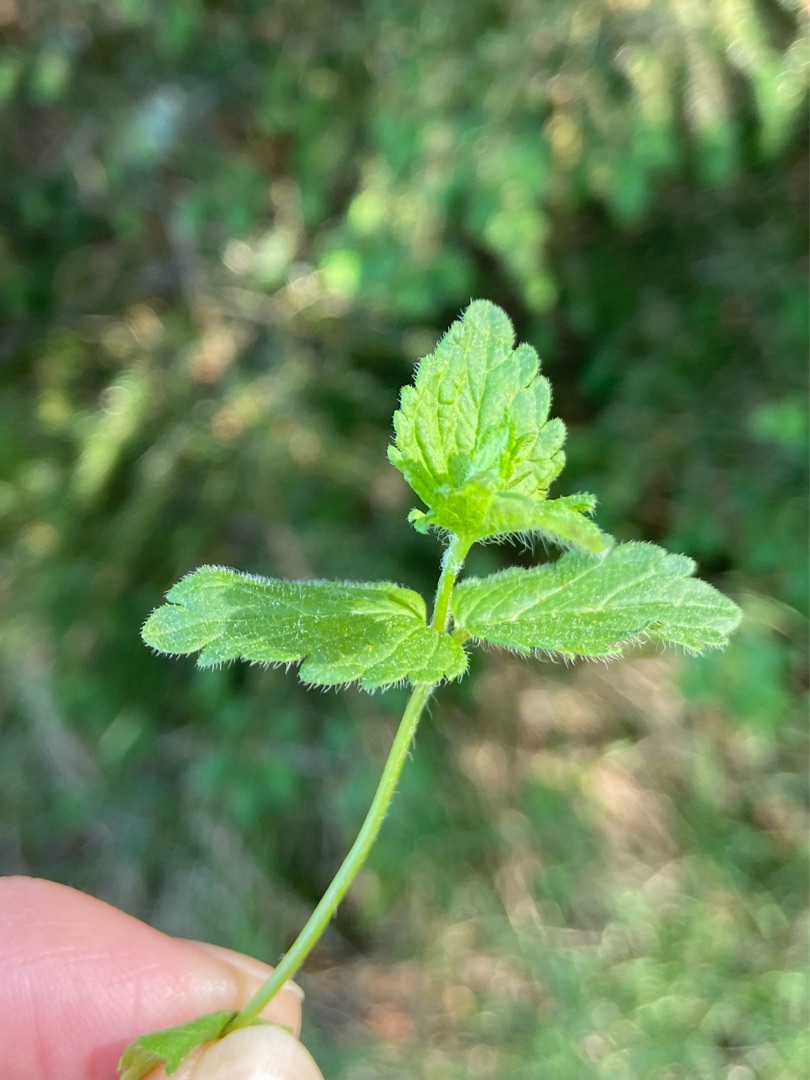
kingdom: Plantae
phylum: Tracheophyta
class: Magnoliopsida
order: Lamiales
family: Plantaginaceae
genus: Veronica
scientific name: Veronica chamaedrys
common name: Tveskægget ærenpris
